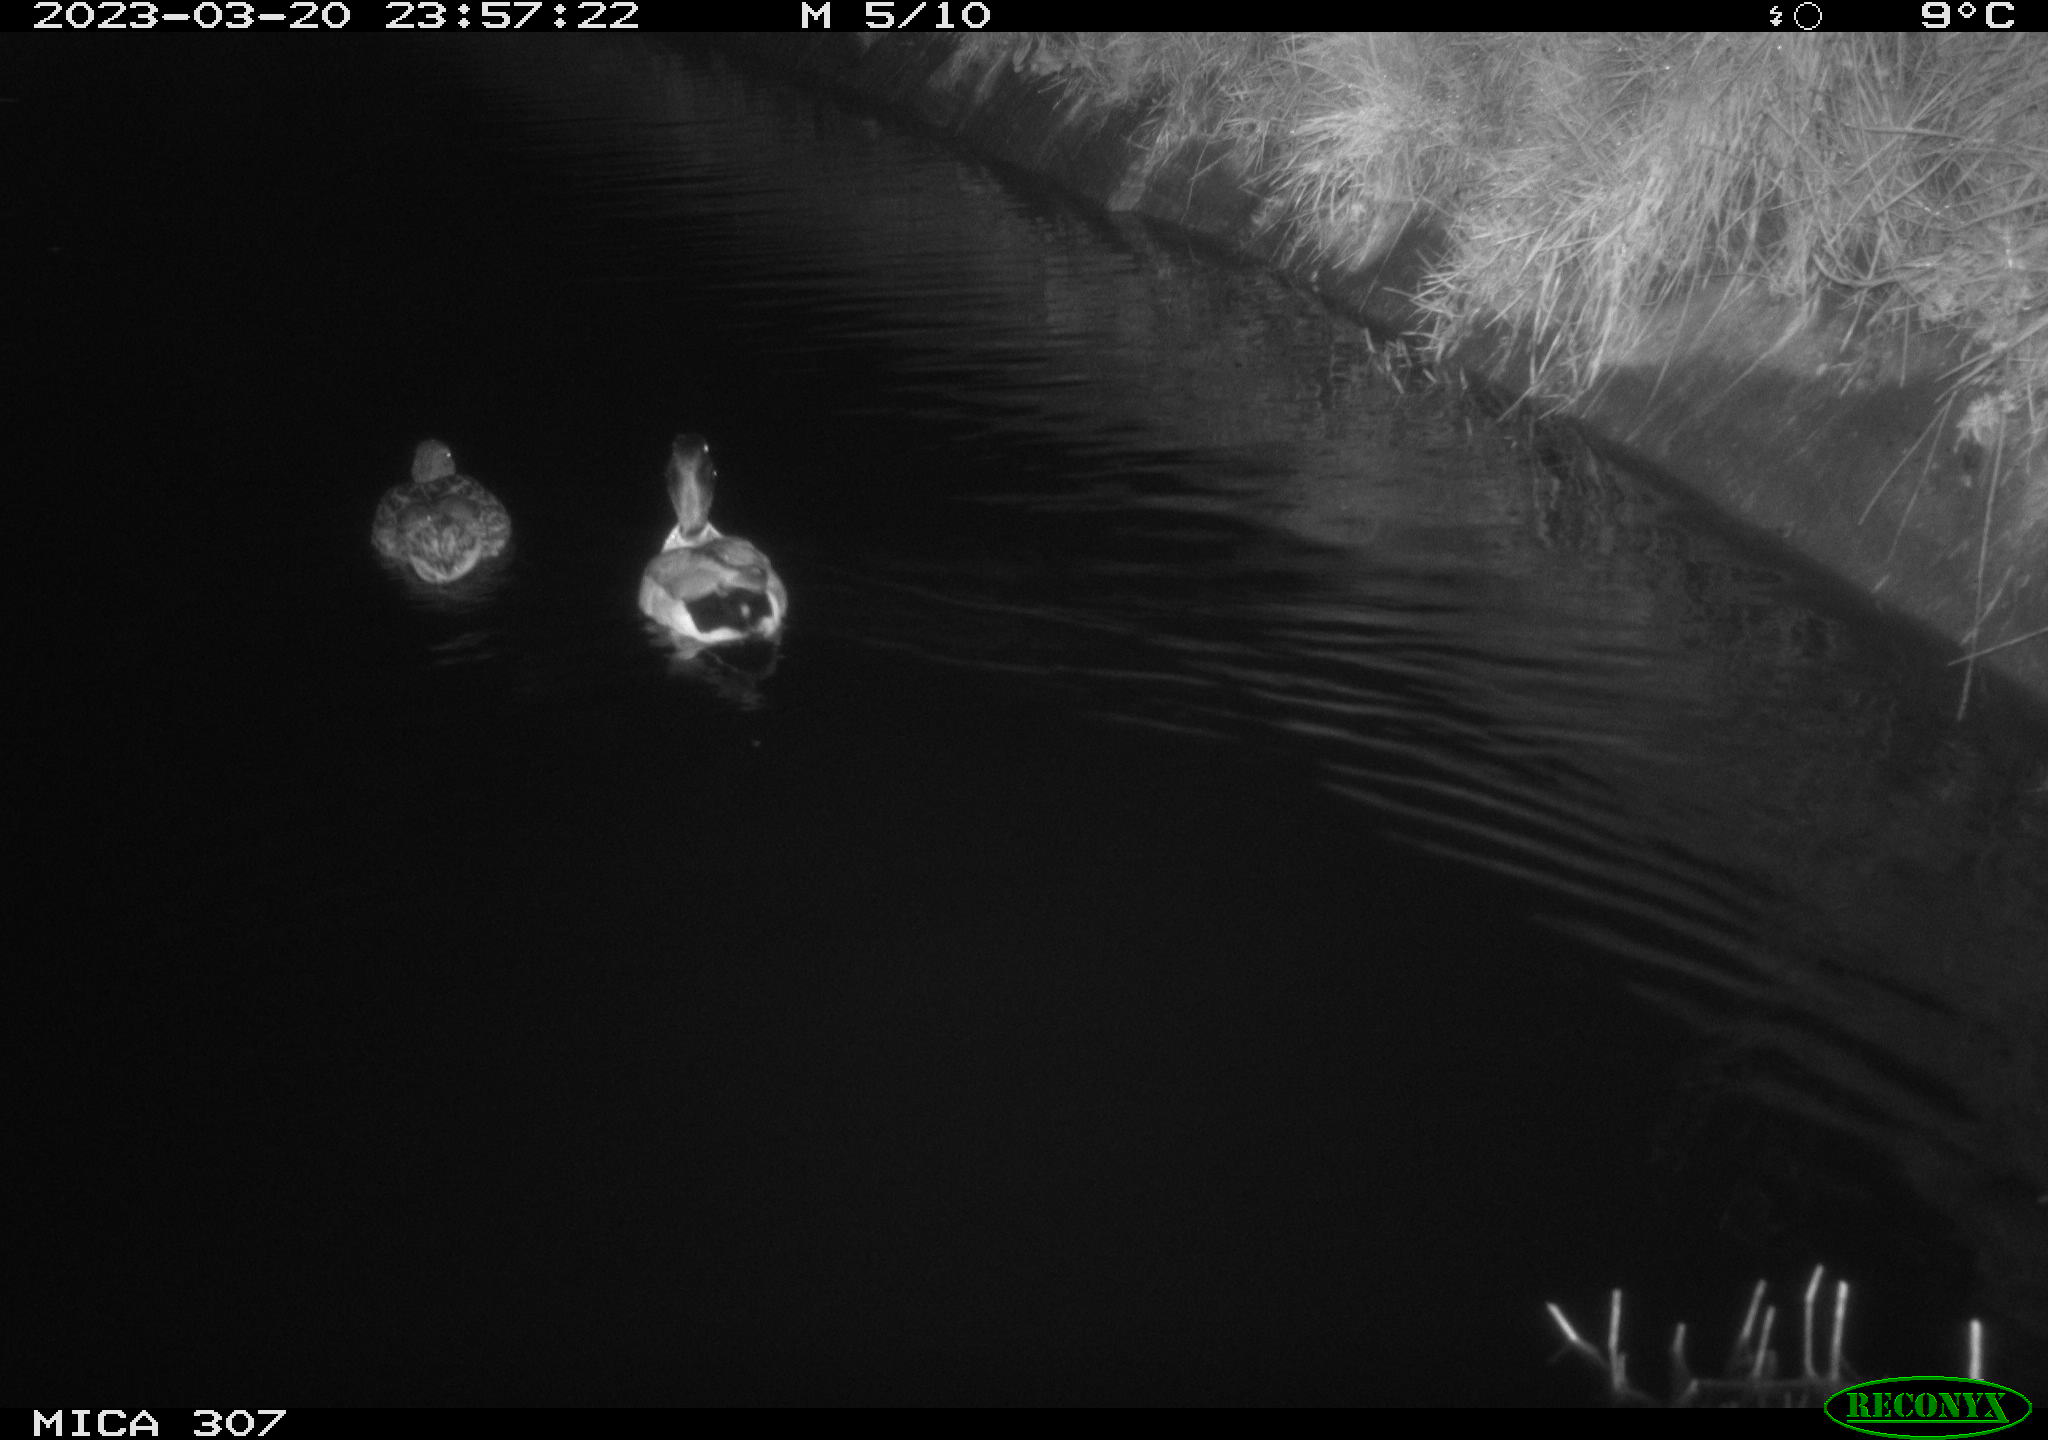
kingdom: Animalia
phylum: Chordata
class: Aves
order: Anseriformes
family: Anatidae
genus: Anas
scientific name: Anas
